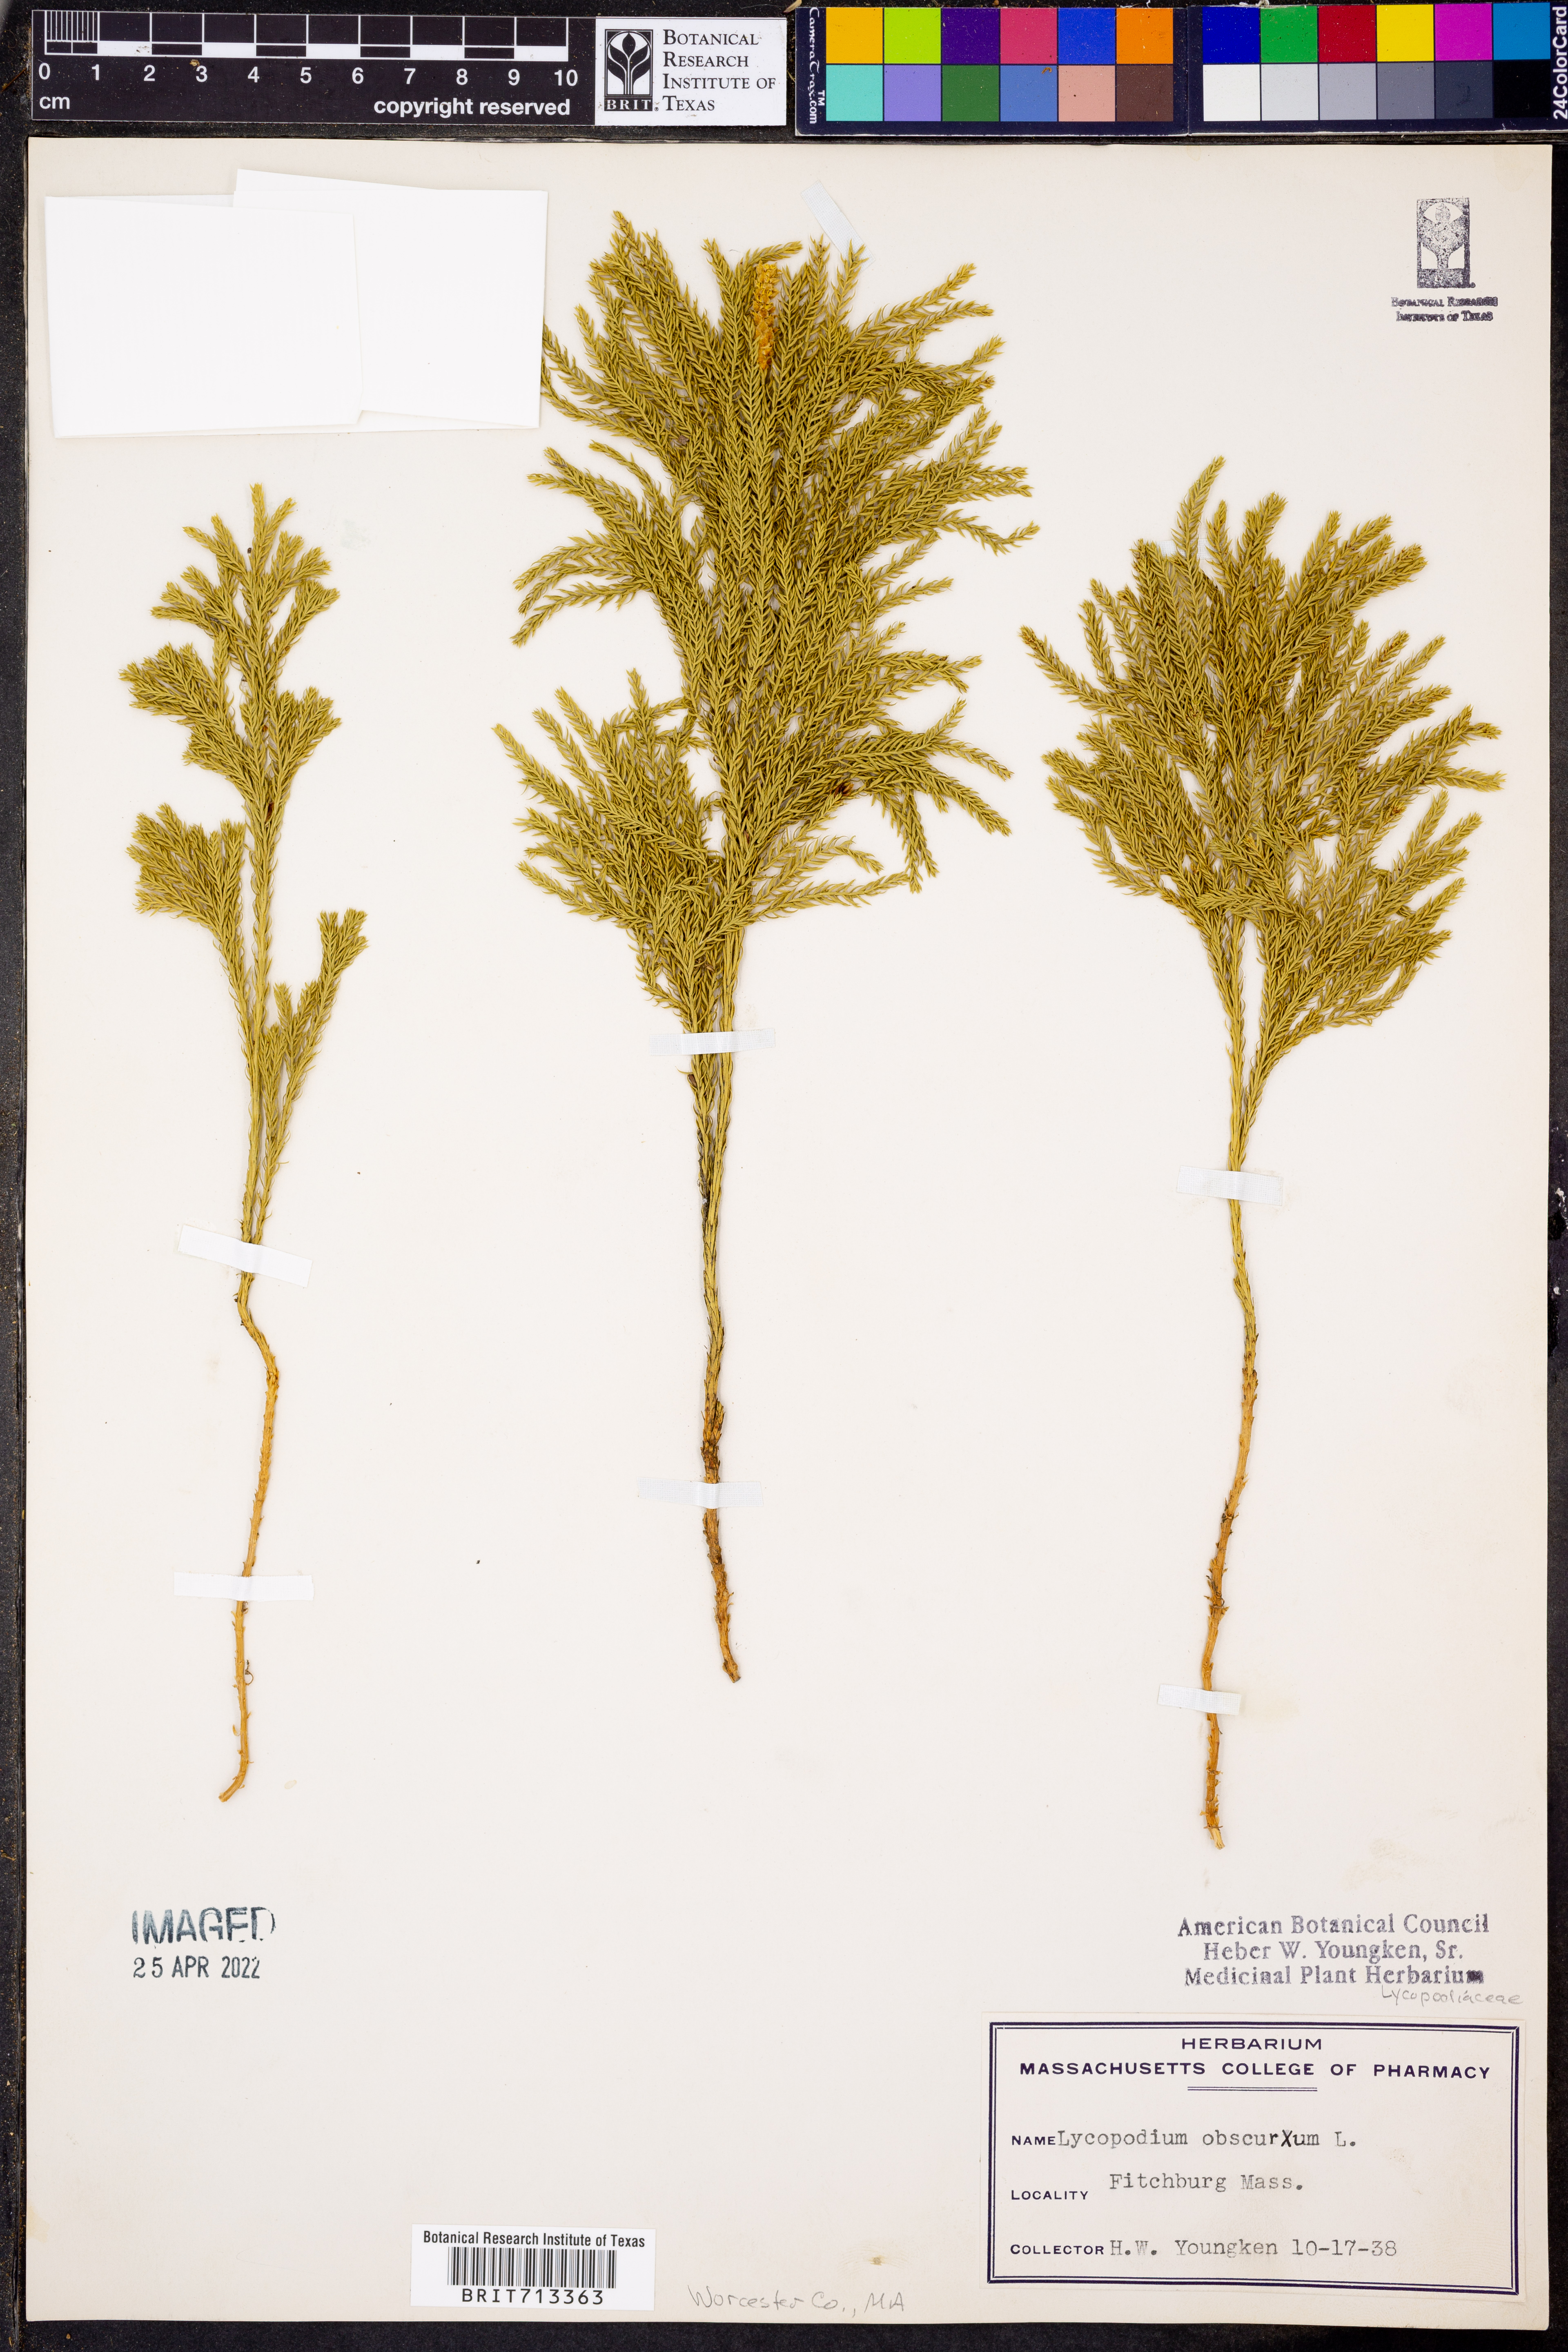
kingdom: Plantae
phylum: Tracheophyta
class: Lycopodiopsida
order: Lycopodiales
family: Lycopodiaceae
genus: Dendrolycopodium
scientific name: Dendrolycopodium obscurum
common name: Common ground-pine
